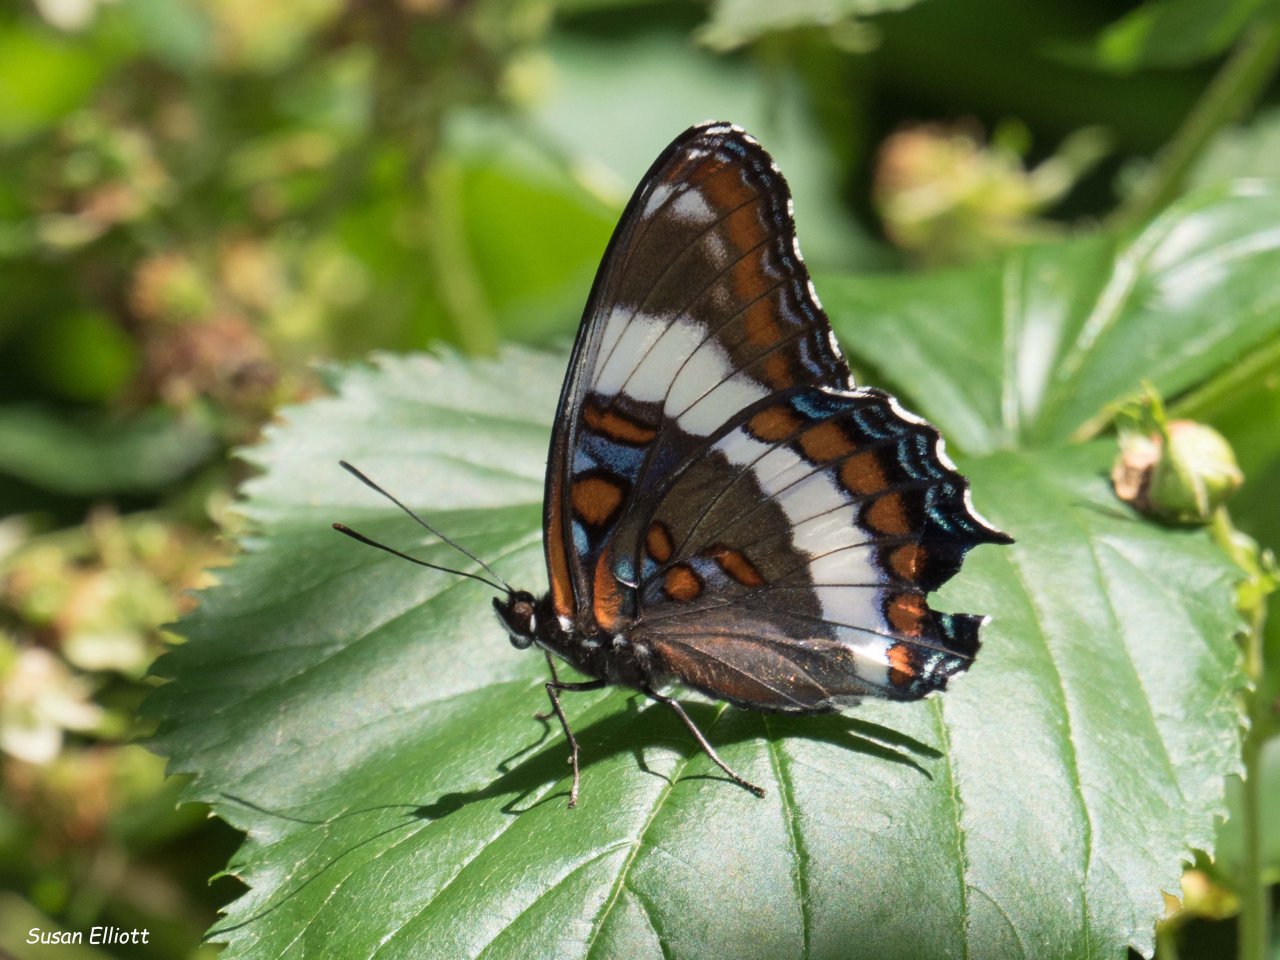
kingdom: Animalia
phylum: Arthropoda
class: Insecta
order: Lepidoptera
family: Nymphalidae
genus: Limenitis
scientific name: Limenitis arthemis
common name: Red-spotted Admiral
